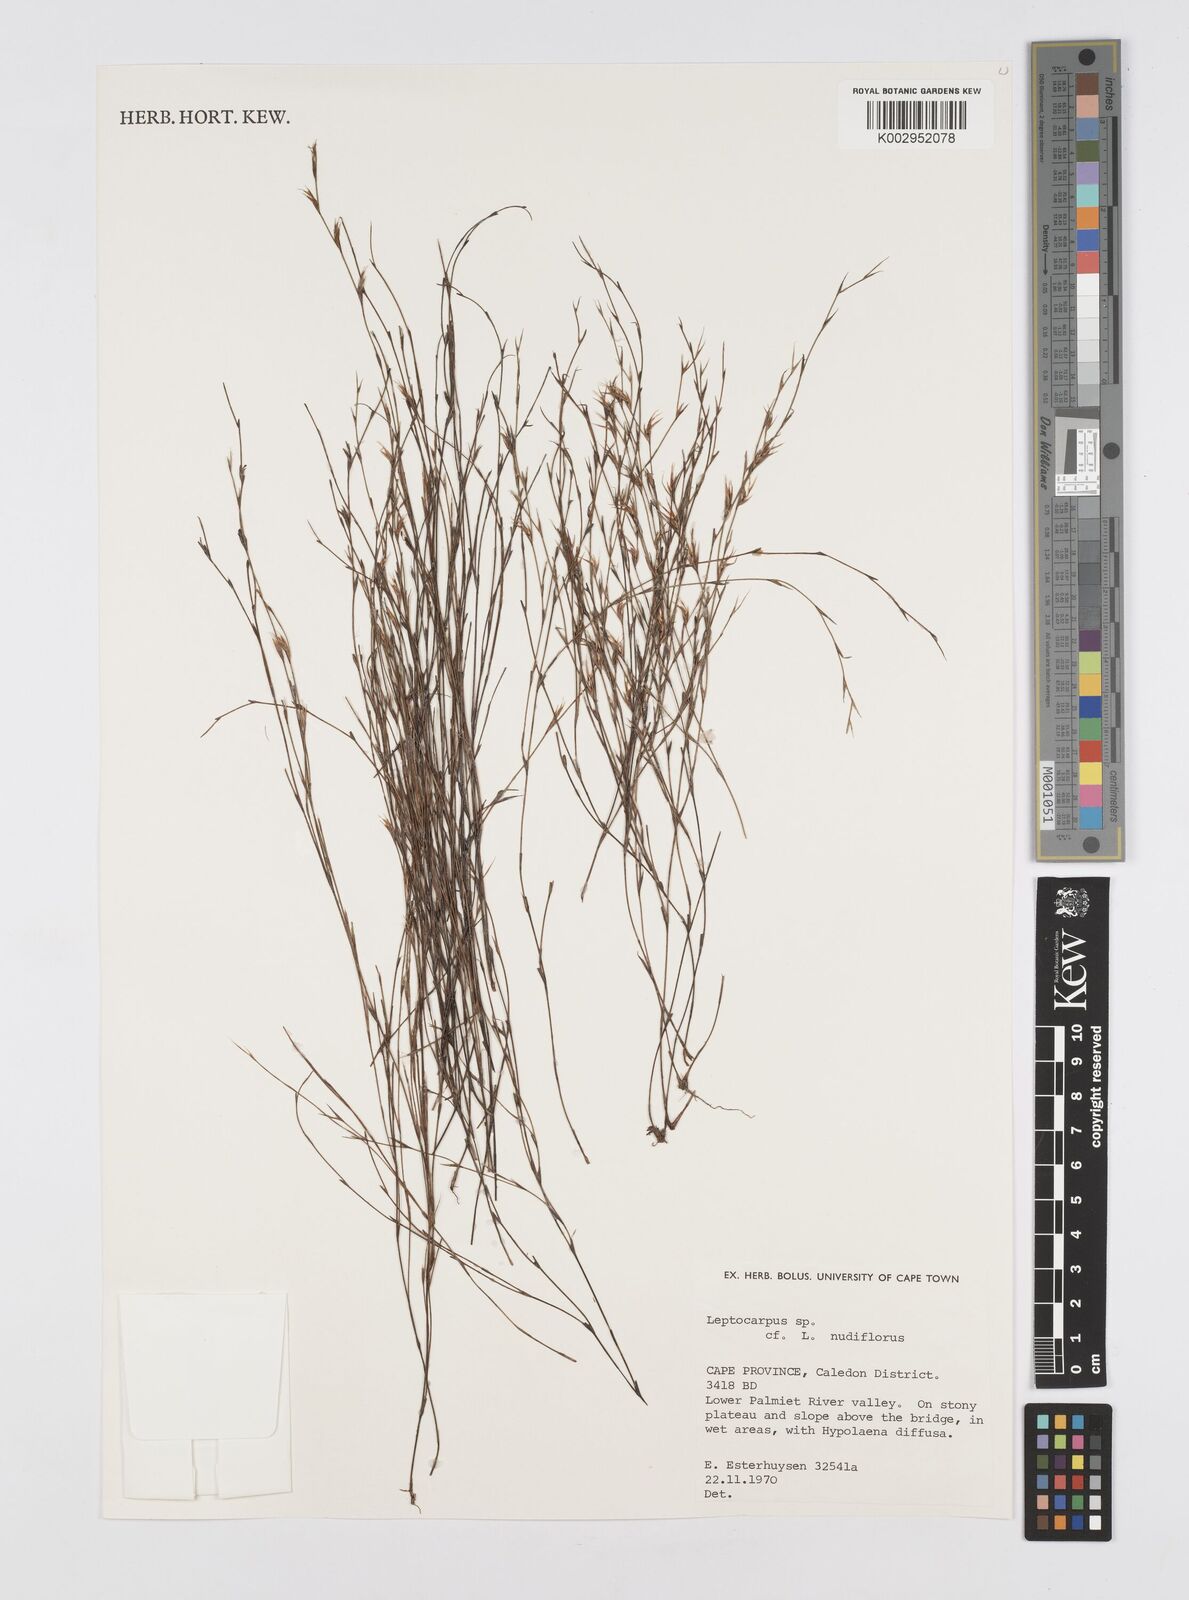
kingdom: Plantae
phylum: Tracheophyta
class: Liliopsida
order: Poales
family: Restionaceae
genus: Restio
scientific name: Restio nudiflorus
